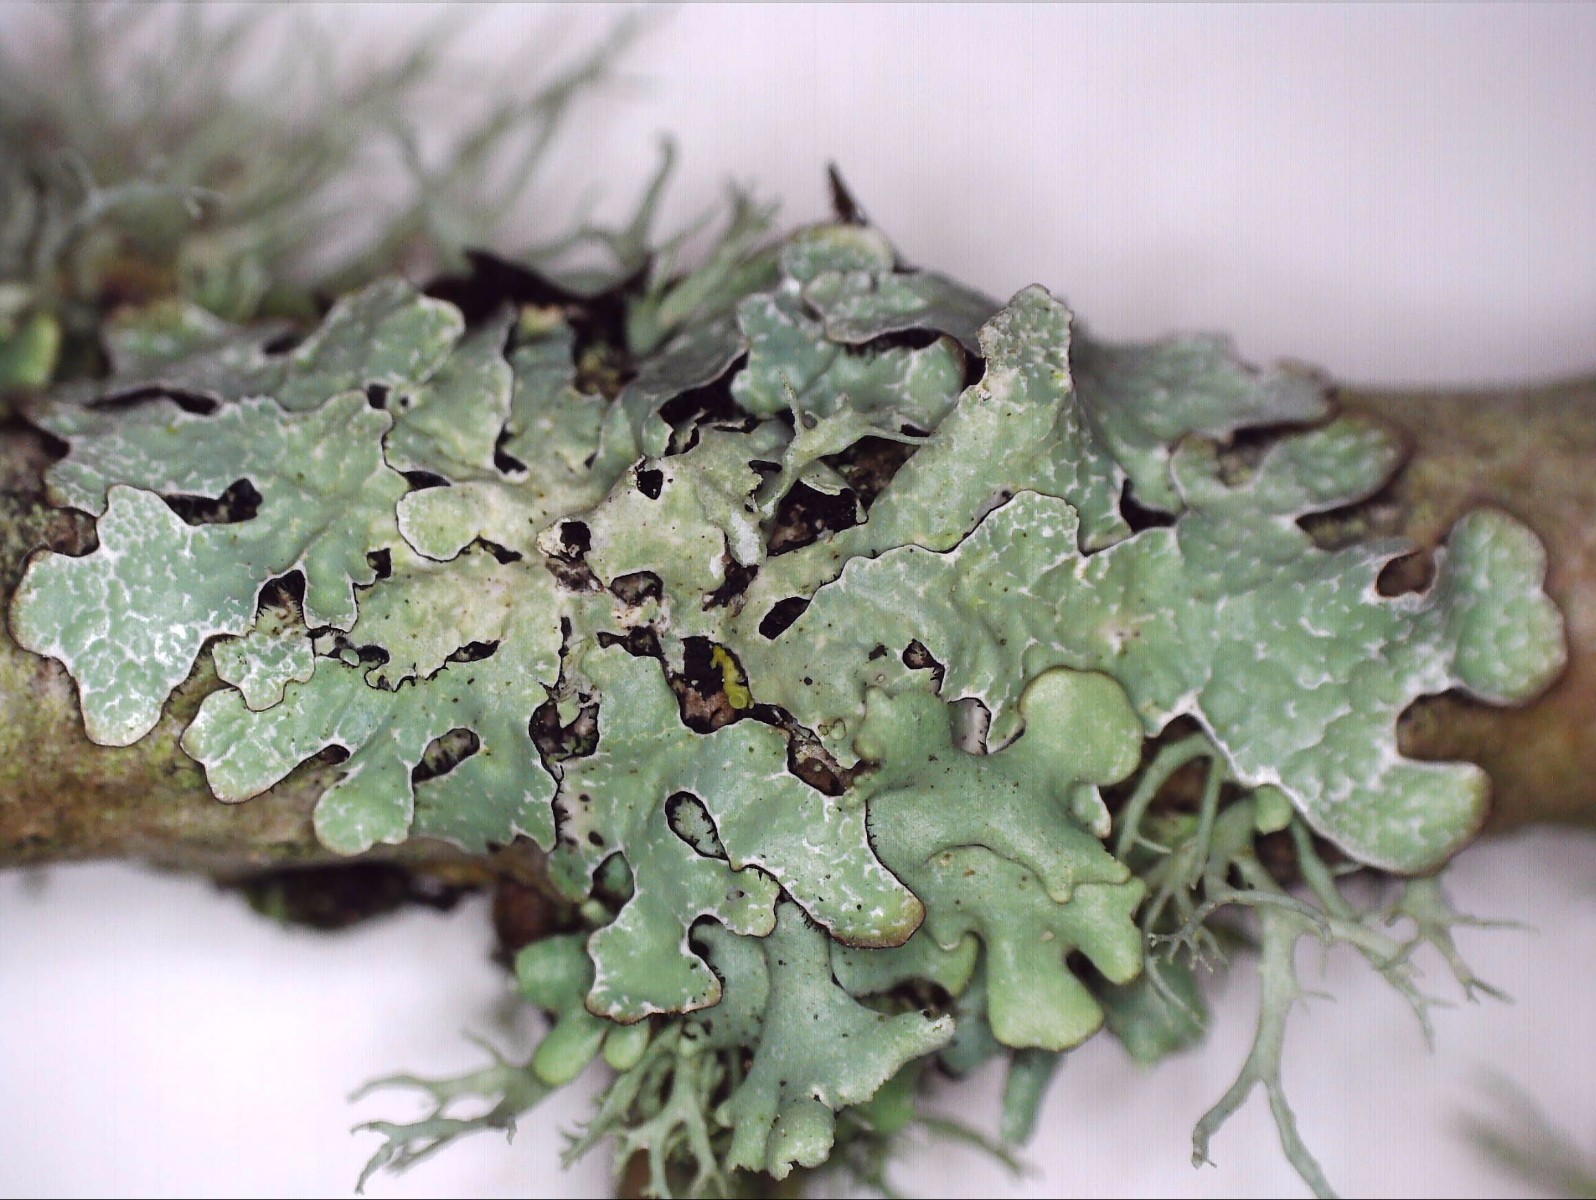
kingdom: Fungi
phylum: Ascomycota
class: Lecanoromycetes
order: Lecanorales
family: Parmeliaceae
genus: Parmelia
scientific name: Parmelia sulcata
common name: rynket skållav
